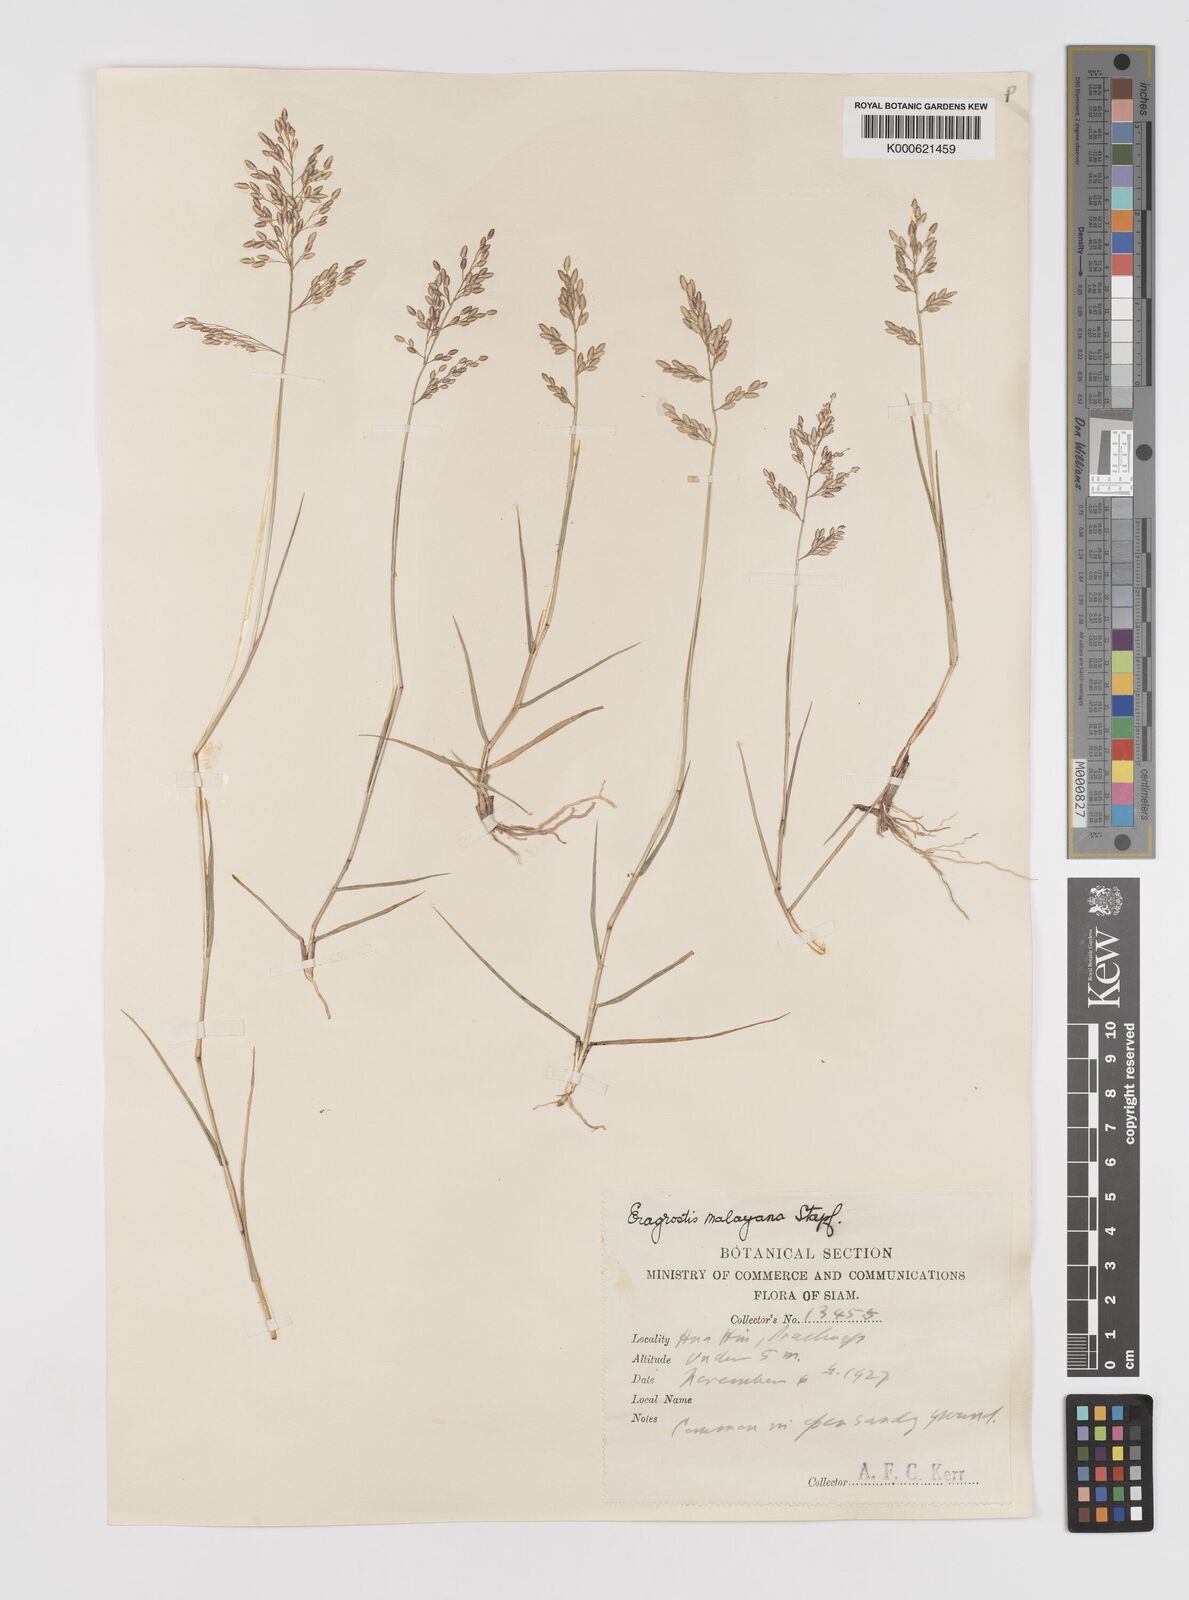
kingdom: Plantae
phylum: Tracheophyta
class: Liliopsida
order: Poales
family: Poaceae
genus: Eragrostis
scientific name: Eragrostis montana
